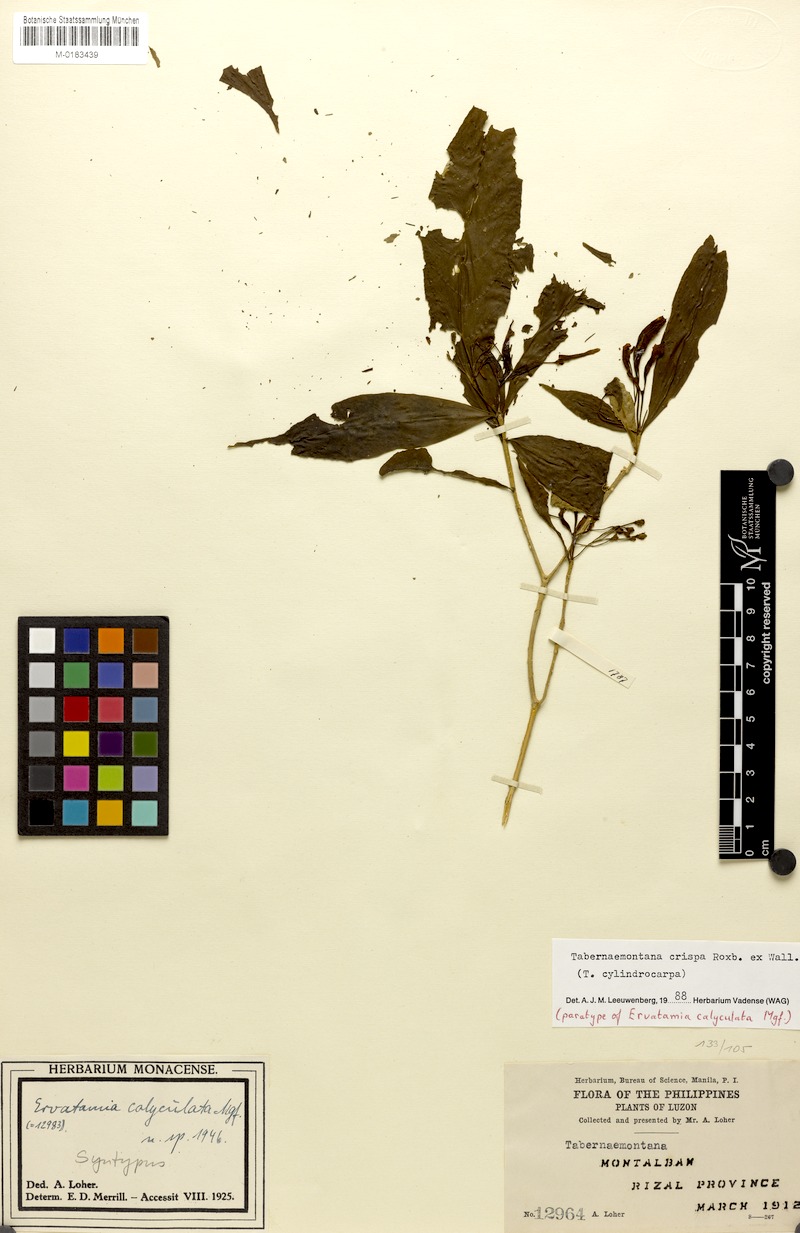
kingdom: Plantae
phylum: Tracheophyta
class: Magnoliopsida
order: Gentianales
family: Apocynaceae
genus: Tabernaemontana
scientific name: Tabernaemontana rostrata
